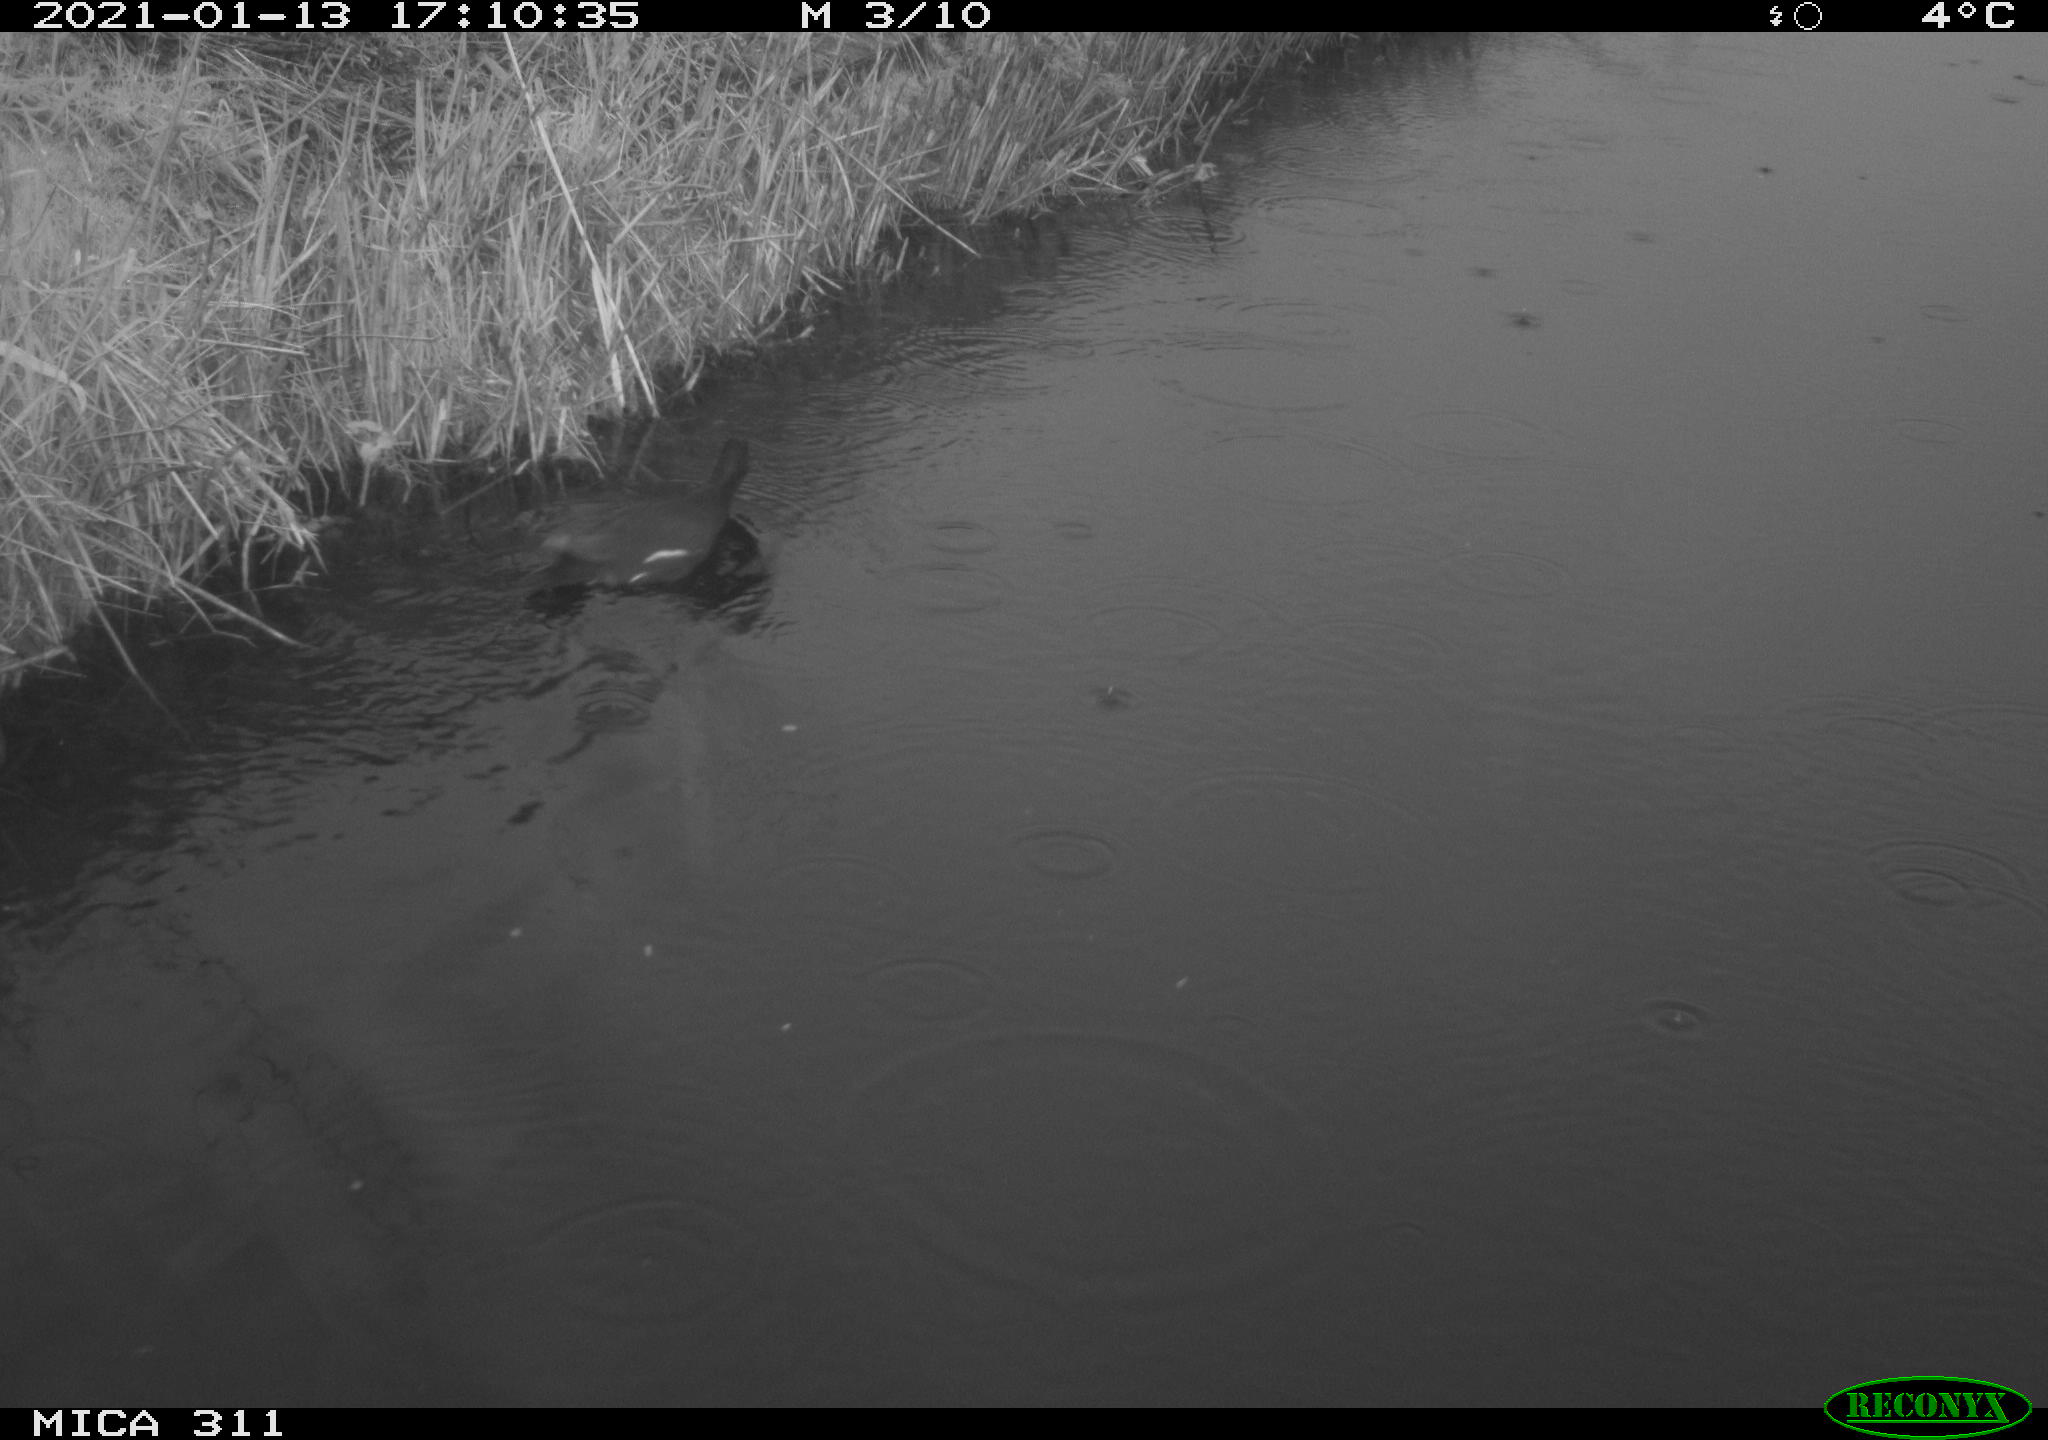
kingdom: Animalia
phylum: Chordata
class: Aves
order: Gruiformes
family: Rallidae
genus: Gallinula
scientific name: Gallinula chloropus
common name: Common moorhen
